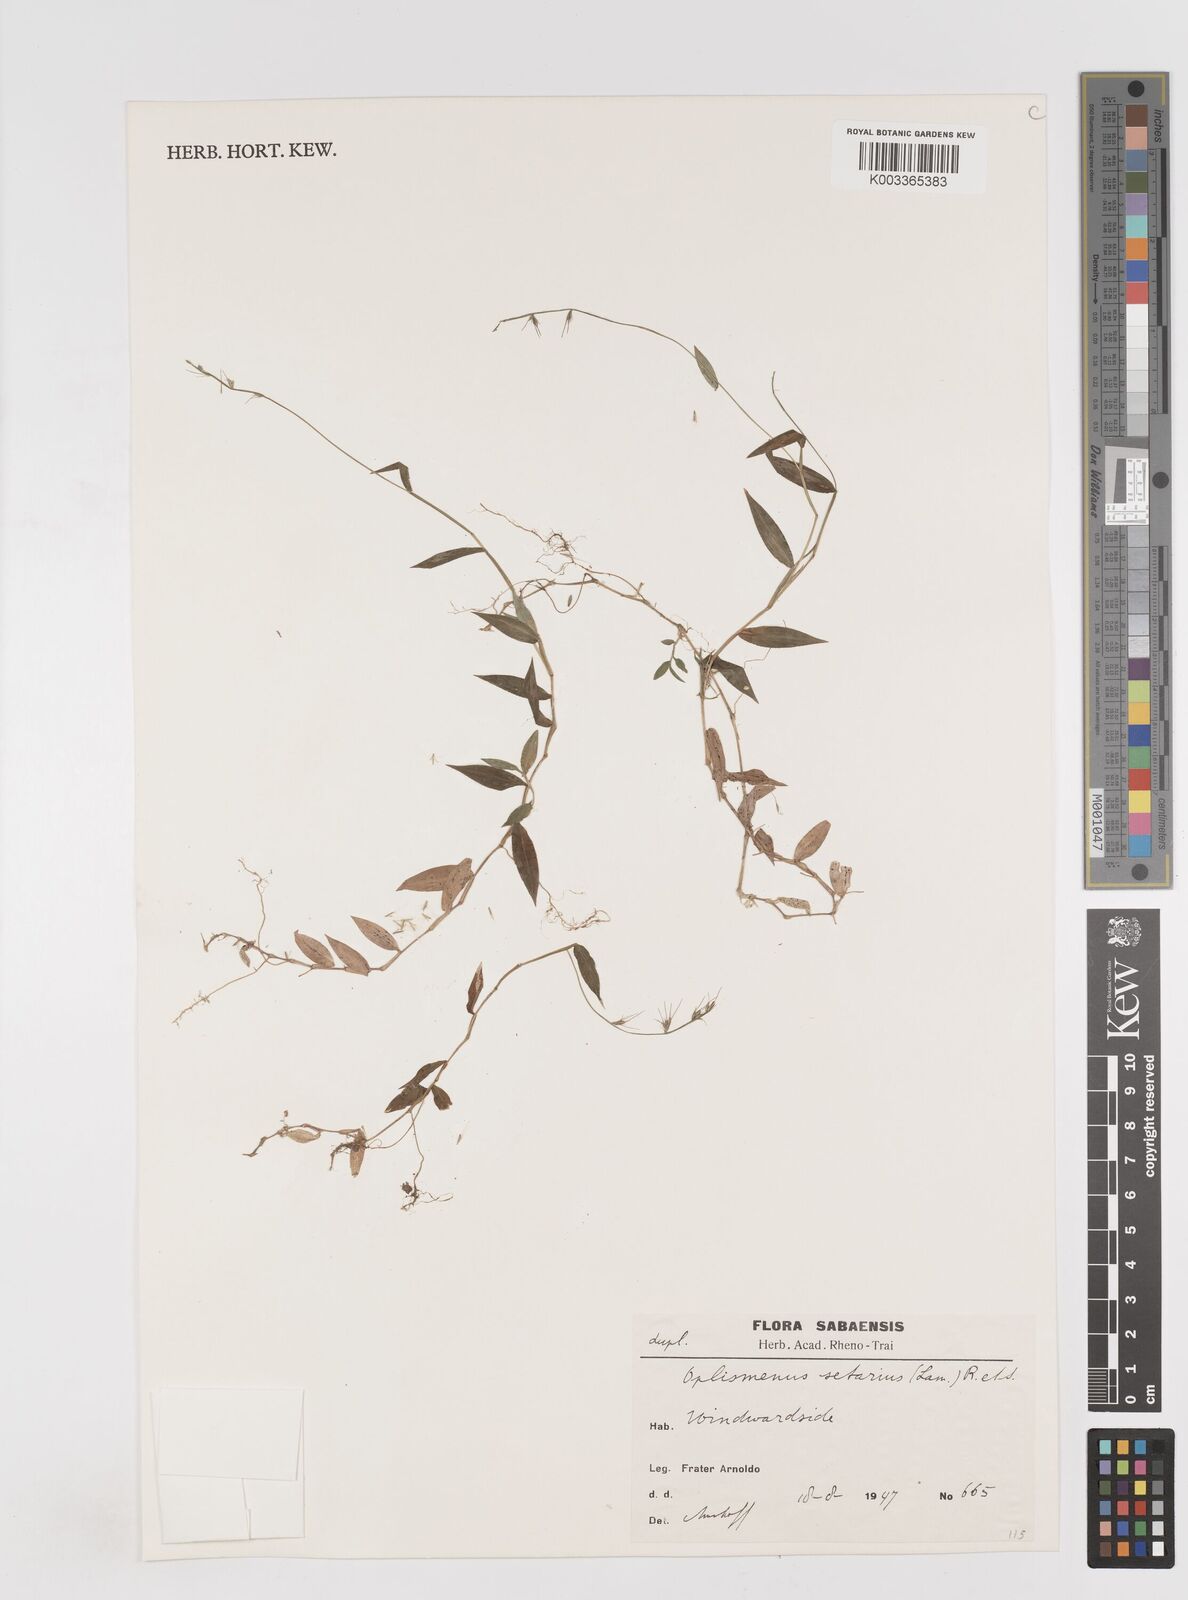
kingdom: Plantae
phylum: Tracheophyta
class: Liliopsida
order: Poales
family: Poaceae
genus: Oplismenus
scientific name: Oplismenus hirtellus
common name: Basketgrass
